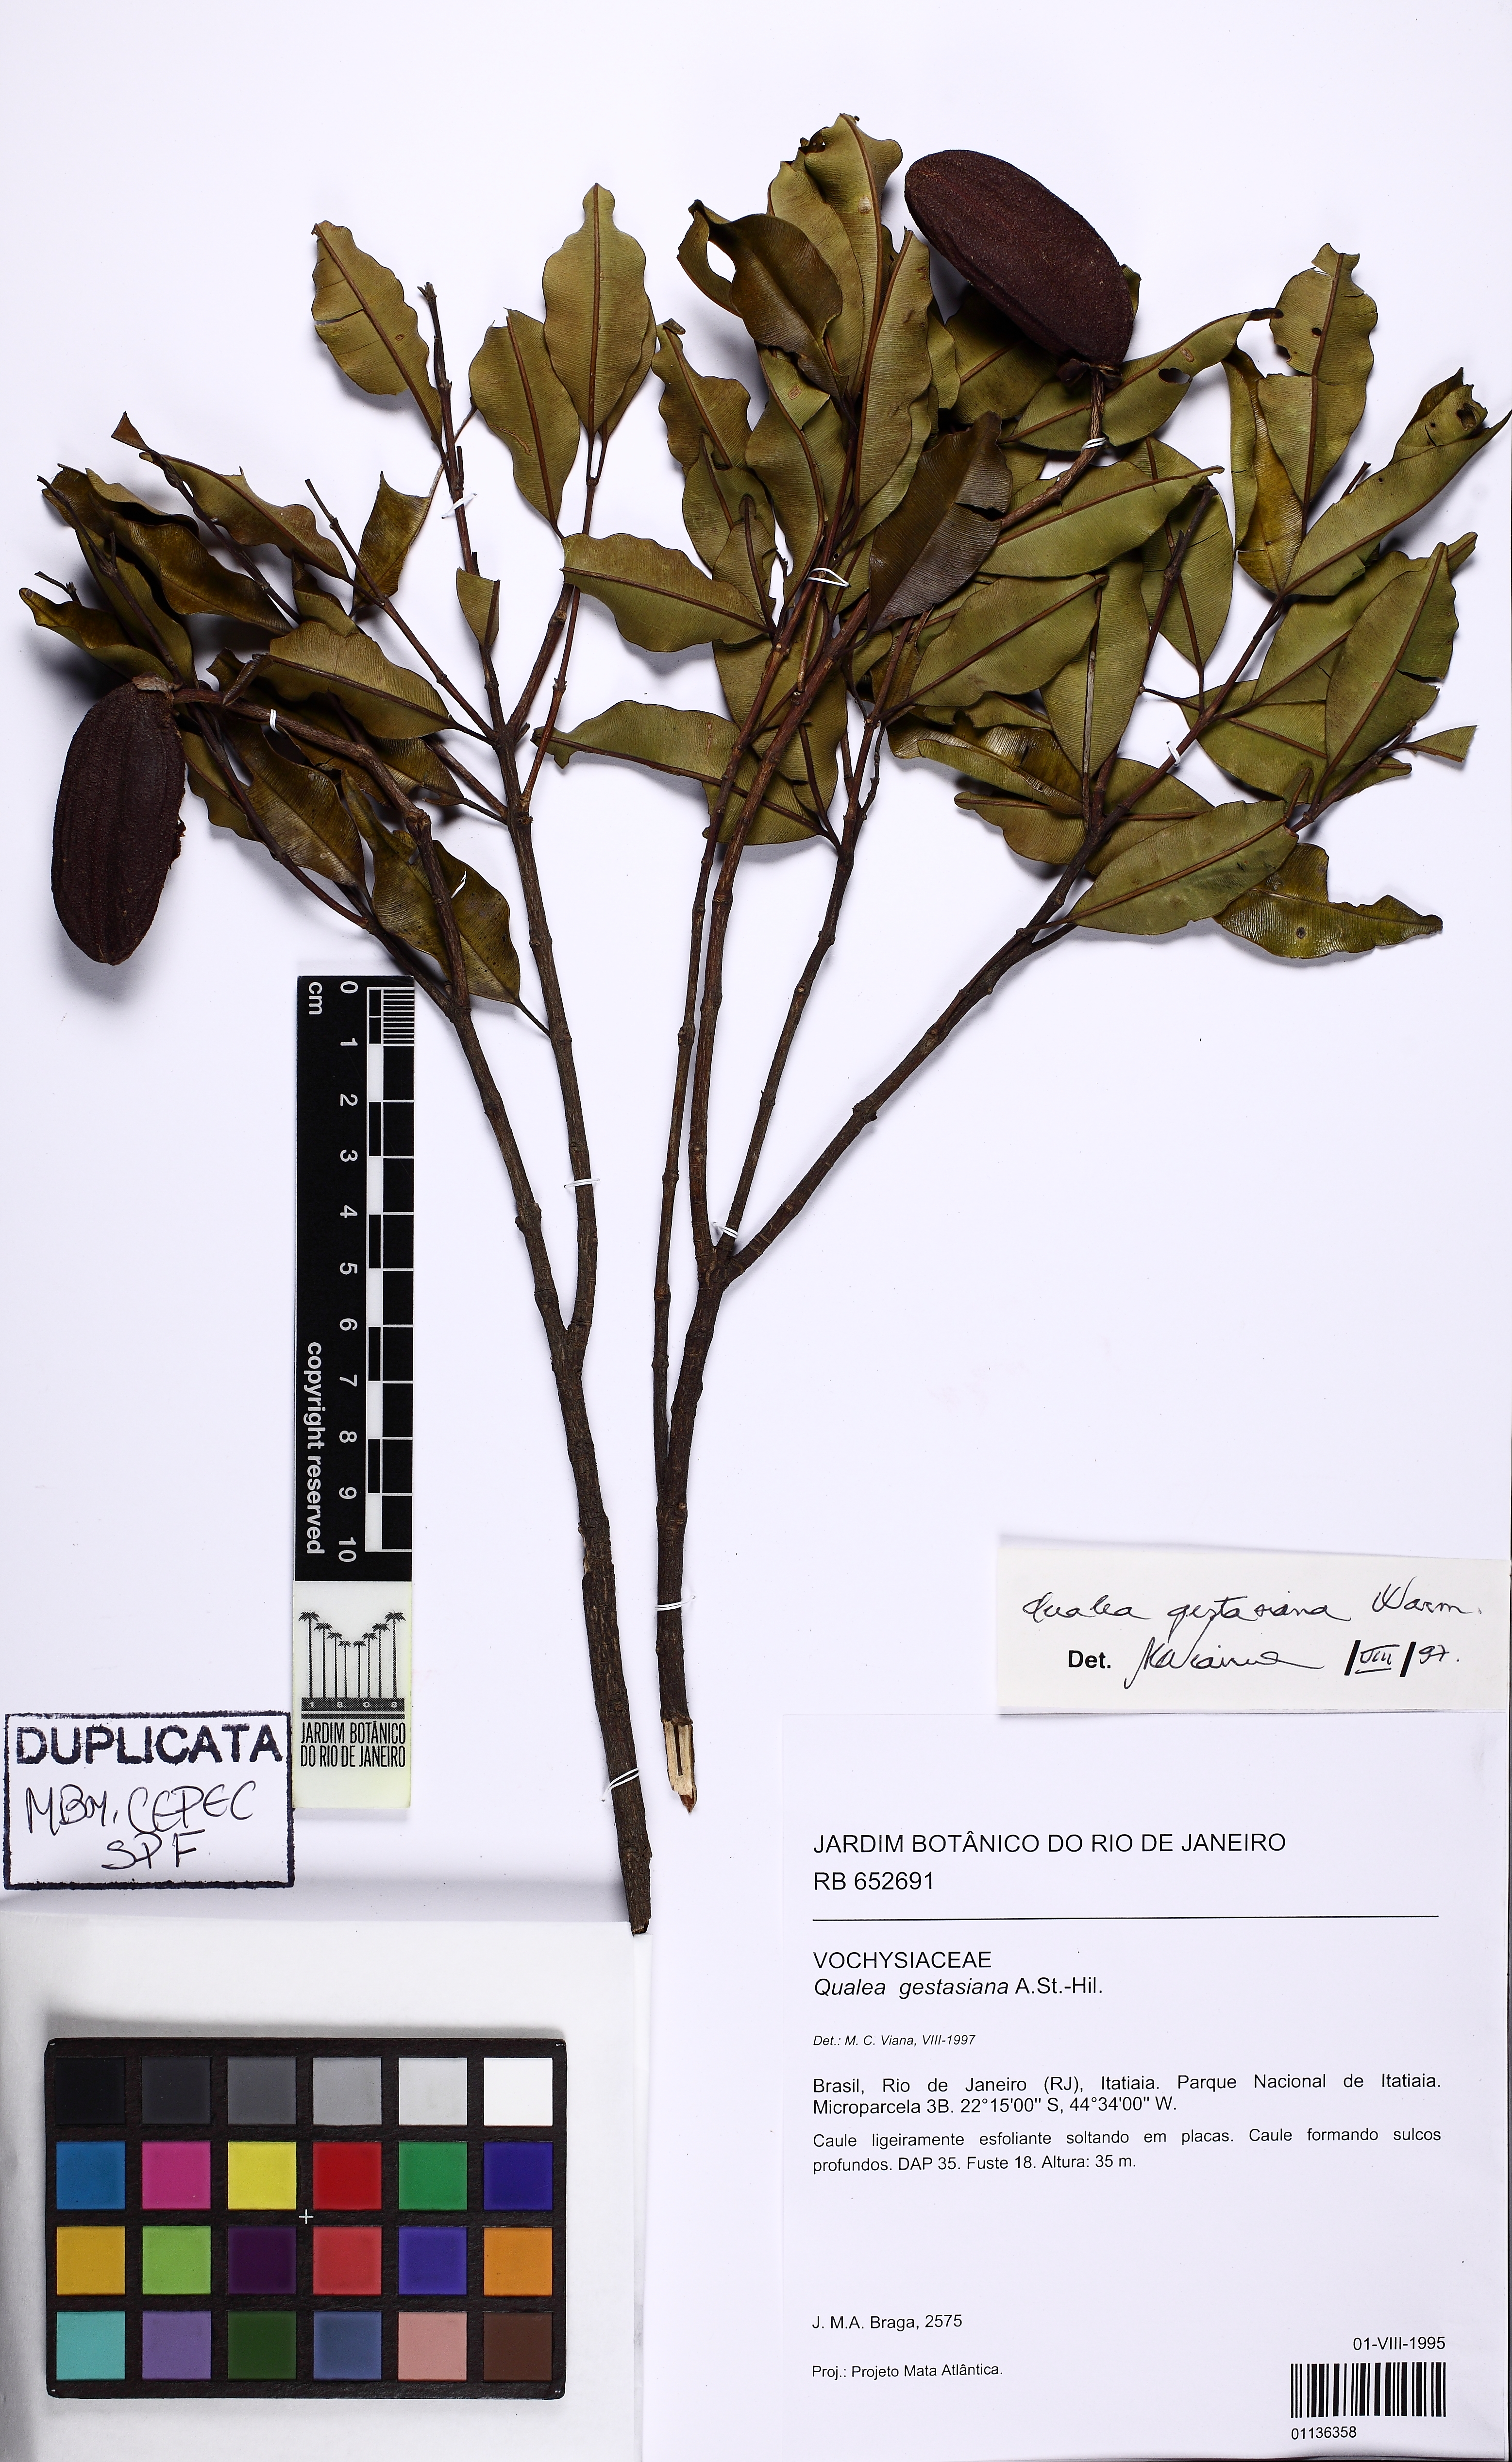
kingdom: Plantae
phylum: Tracheophyta
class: Magnoliopsida
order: Myrtales
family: Vochysiaceae
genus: Qualea
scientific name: Qualea gestasiana
